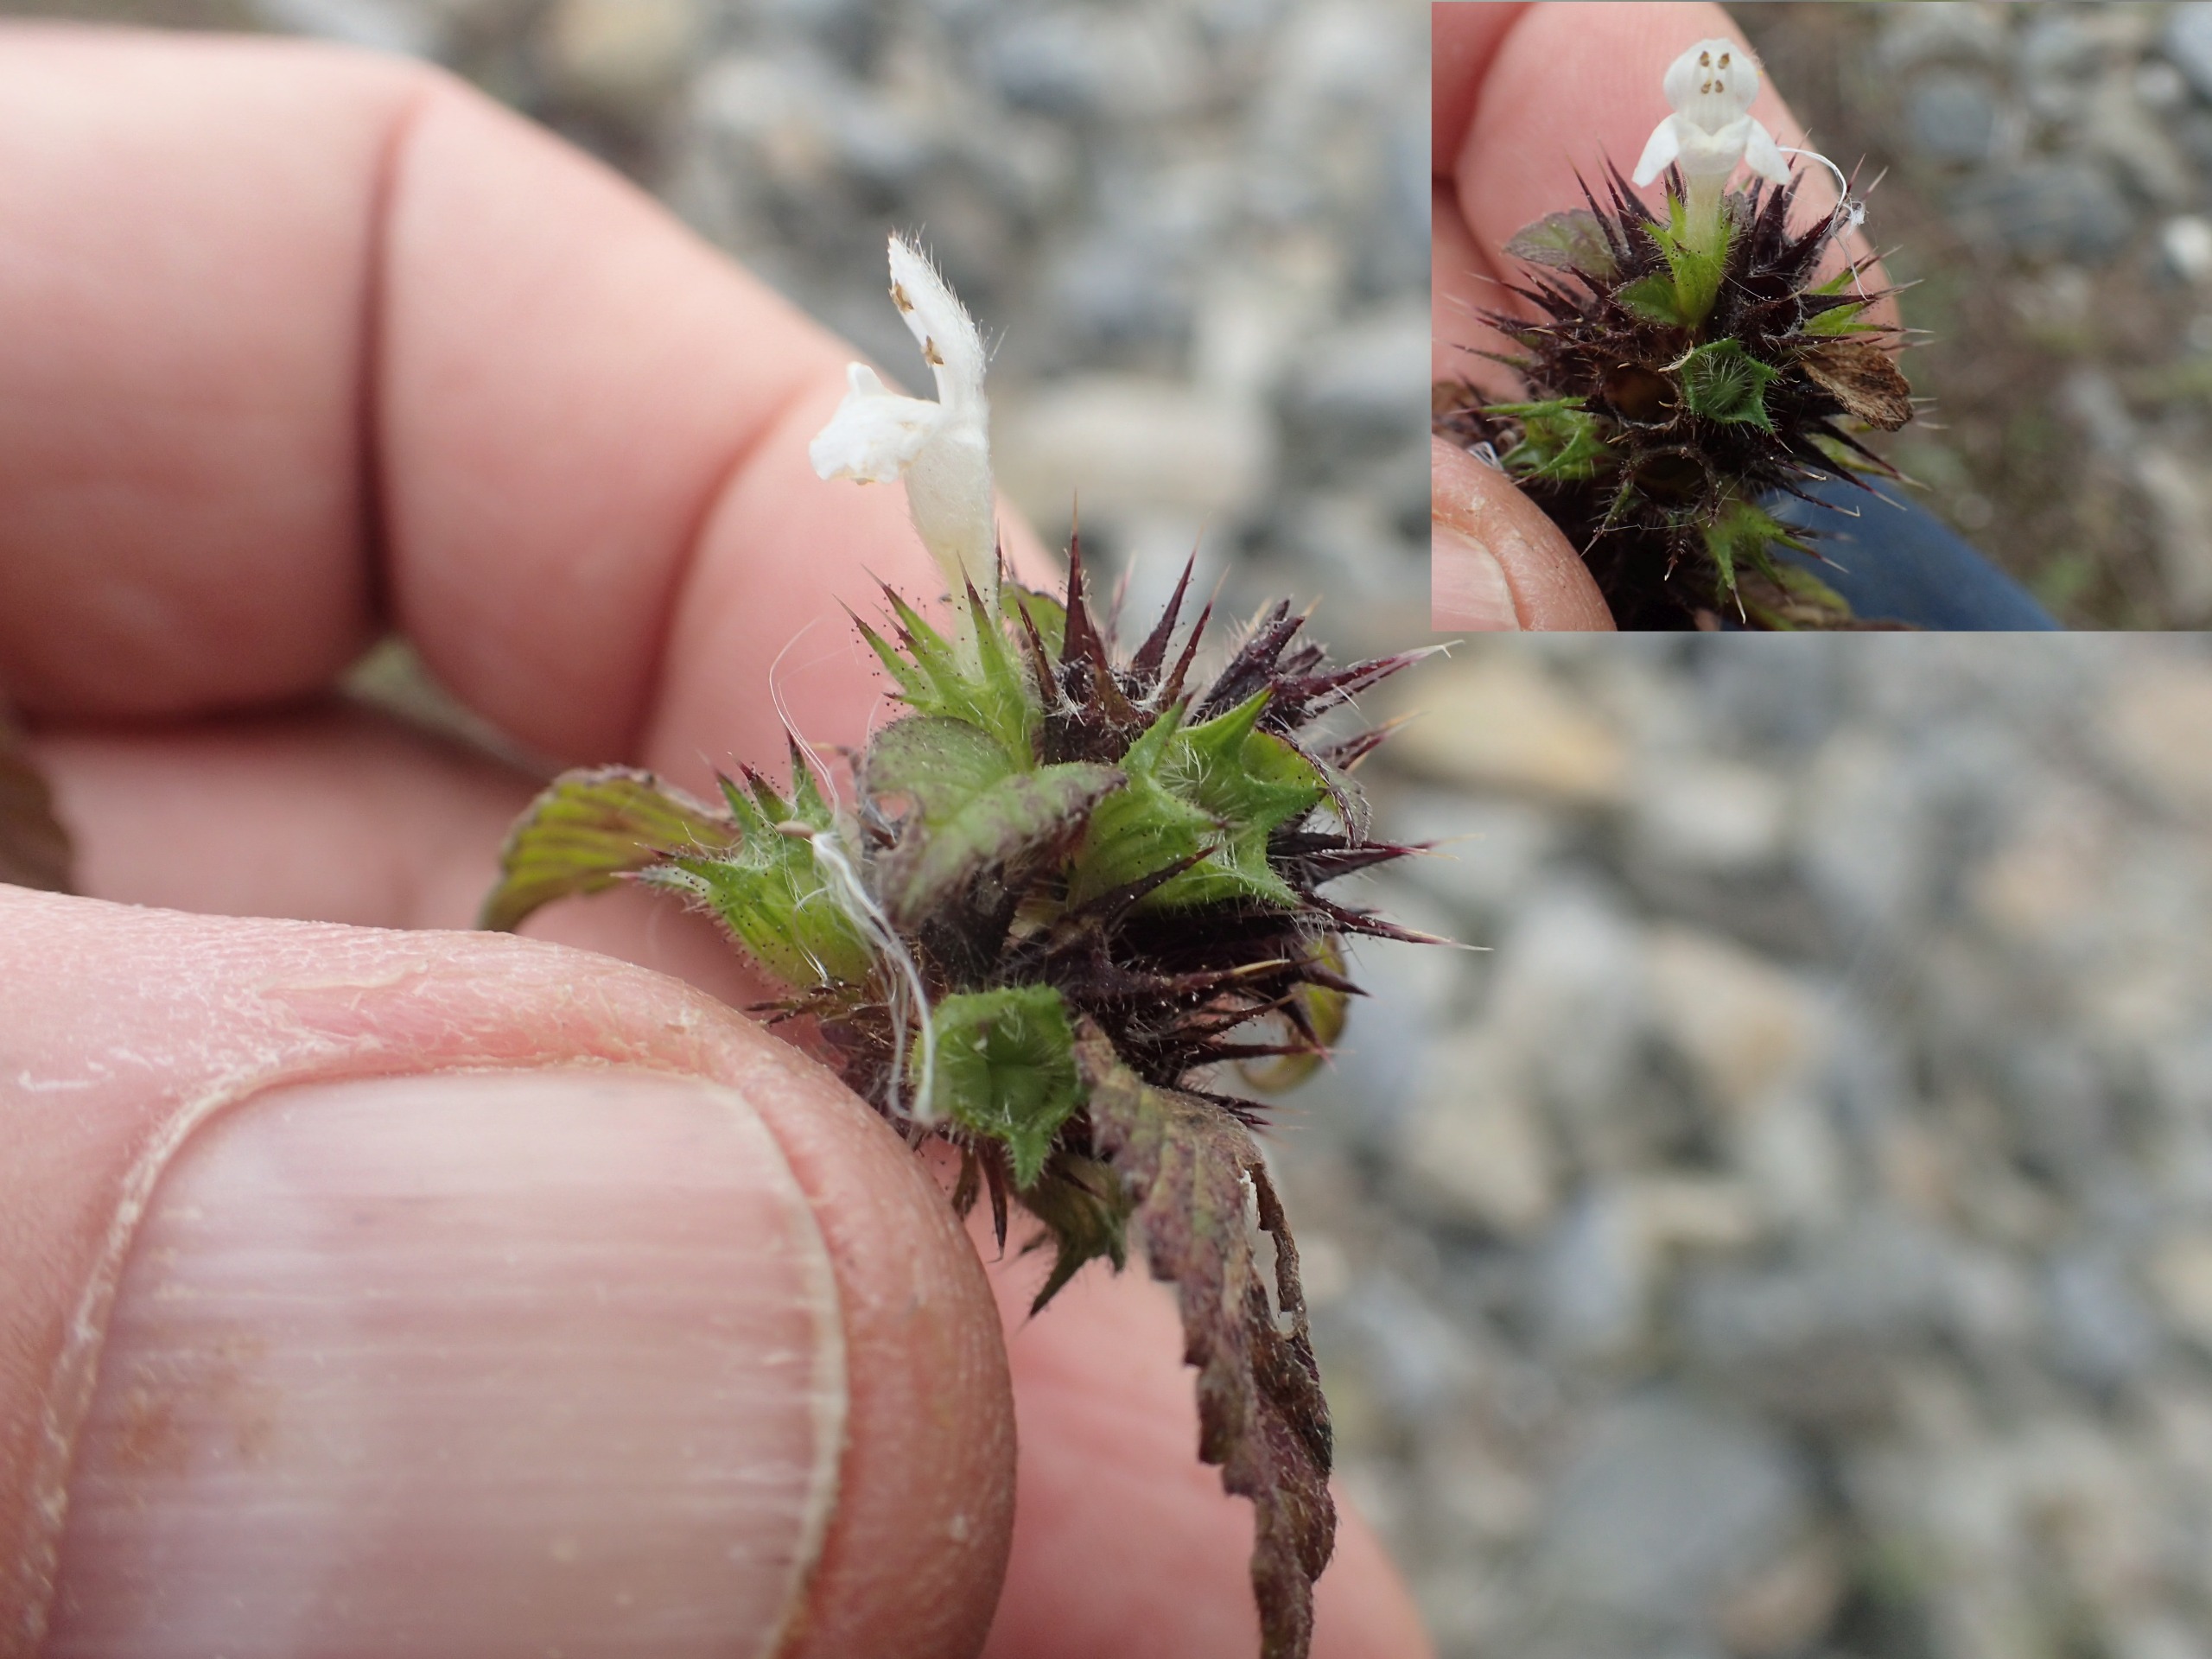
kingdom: Plantae
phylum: Tracheophyta
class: Magnoliopsida
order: Lamiales
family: Lamiaceae
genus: Galeopsis
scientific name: Galeopsis tetrahit
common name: Almindelig hanekro
